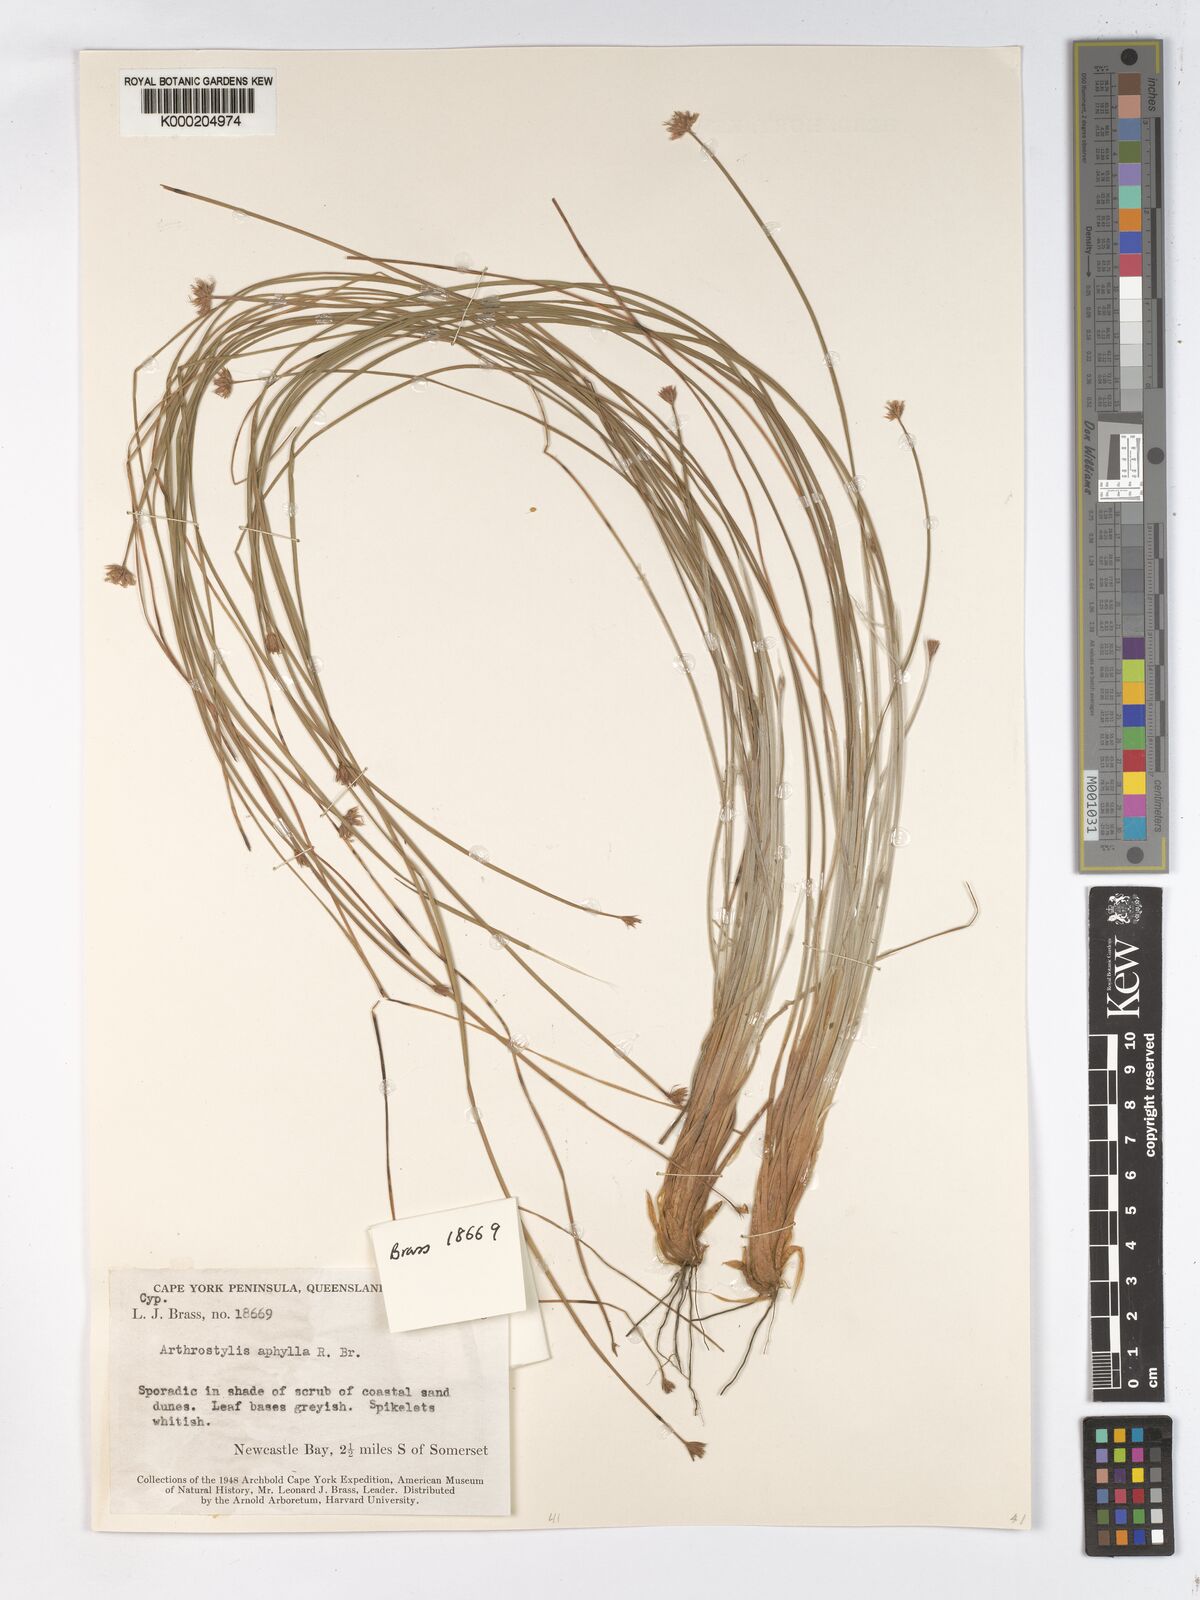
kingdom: Plantae
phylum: Tracheophyta
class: Liliopsida
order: Poales
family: Cyperaceae
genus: Arthrostylis
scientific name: Arthrostylis aphylla
